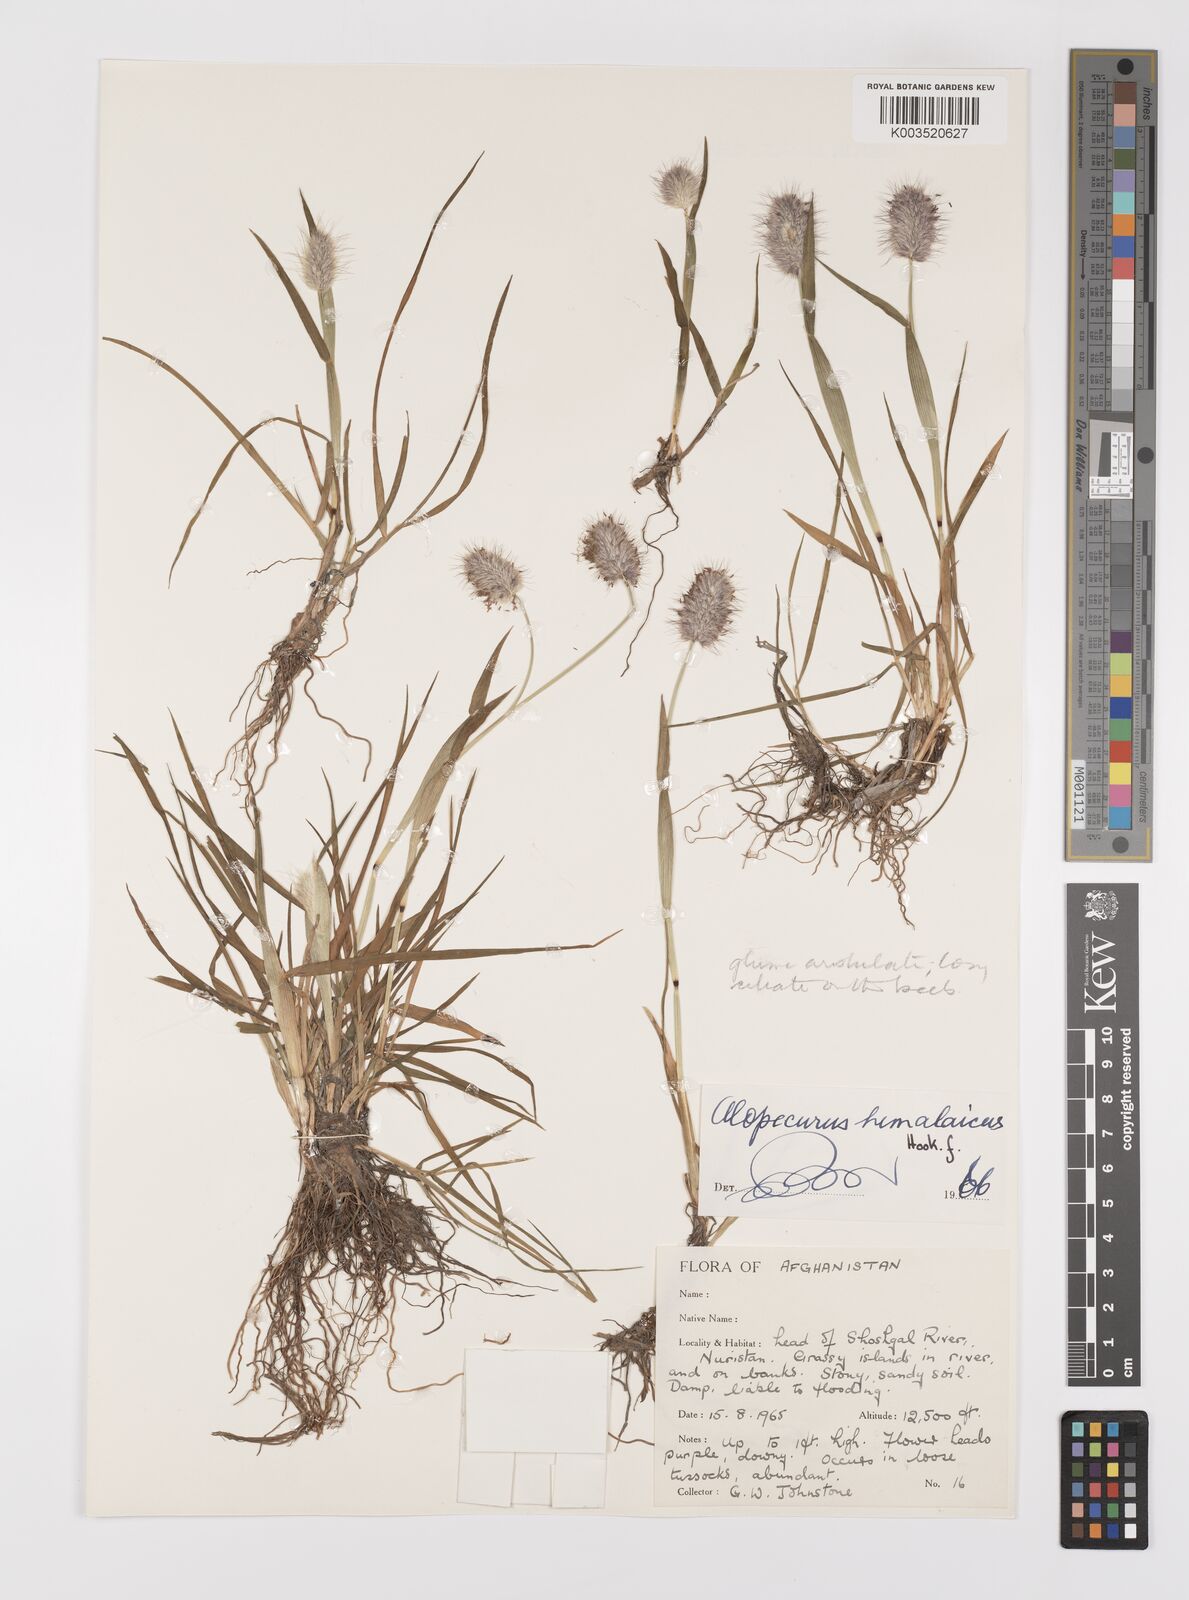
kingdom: Plantae
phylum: Tracheophyta
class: Liliopsida
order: Poales
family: Poaceae
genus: Alopecurus
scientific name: Alopecurus himalaicus
